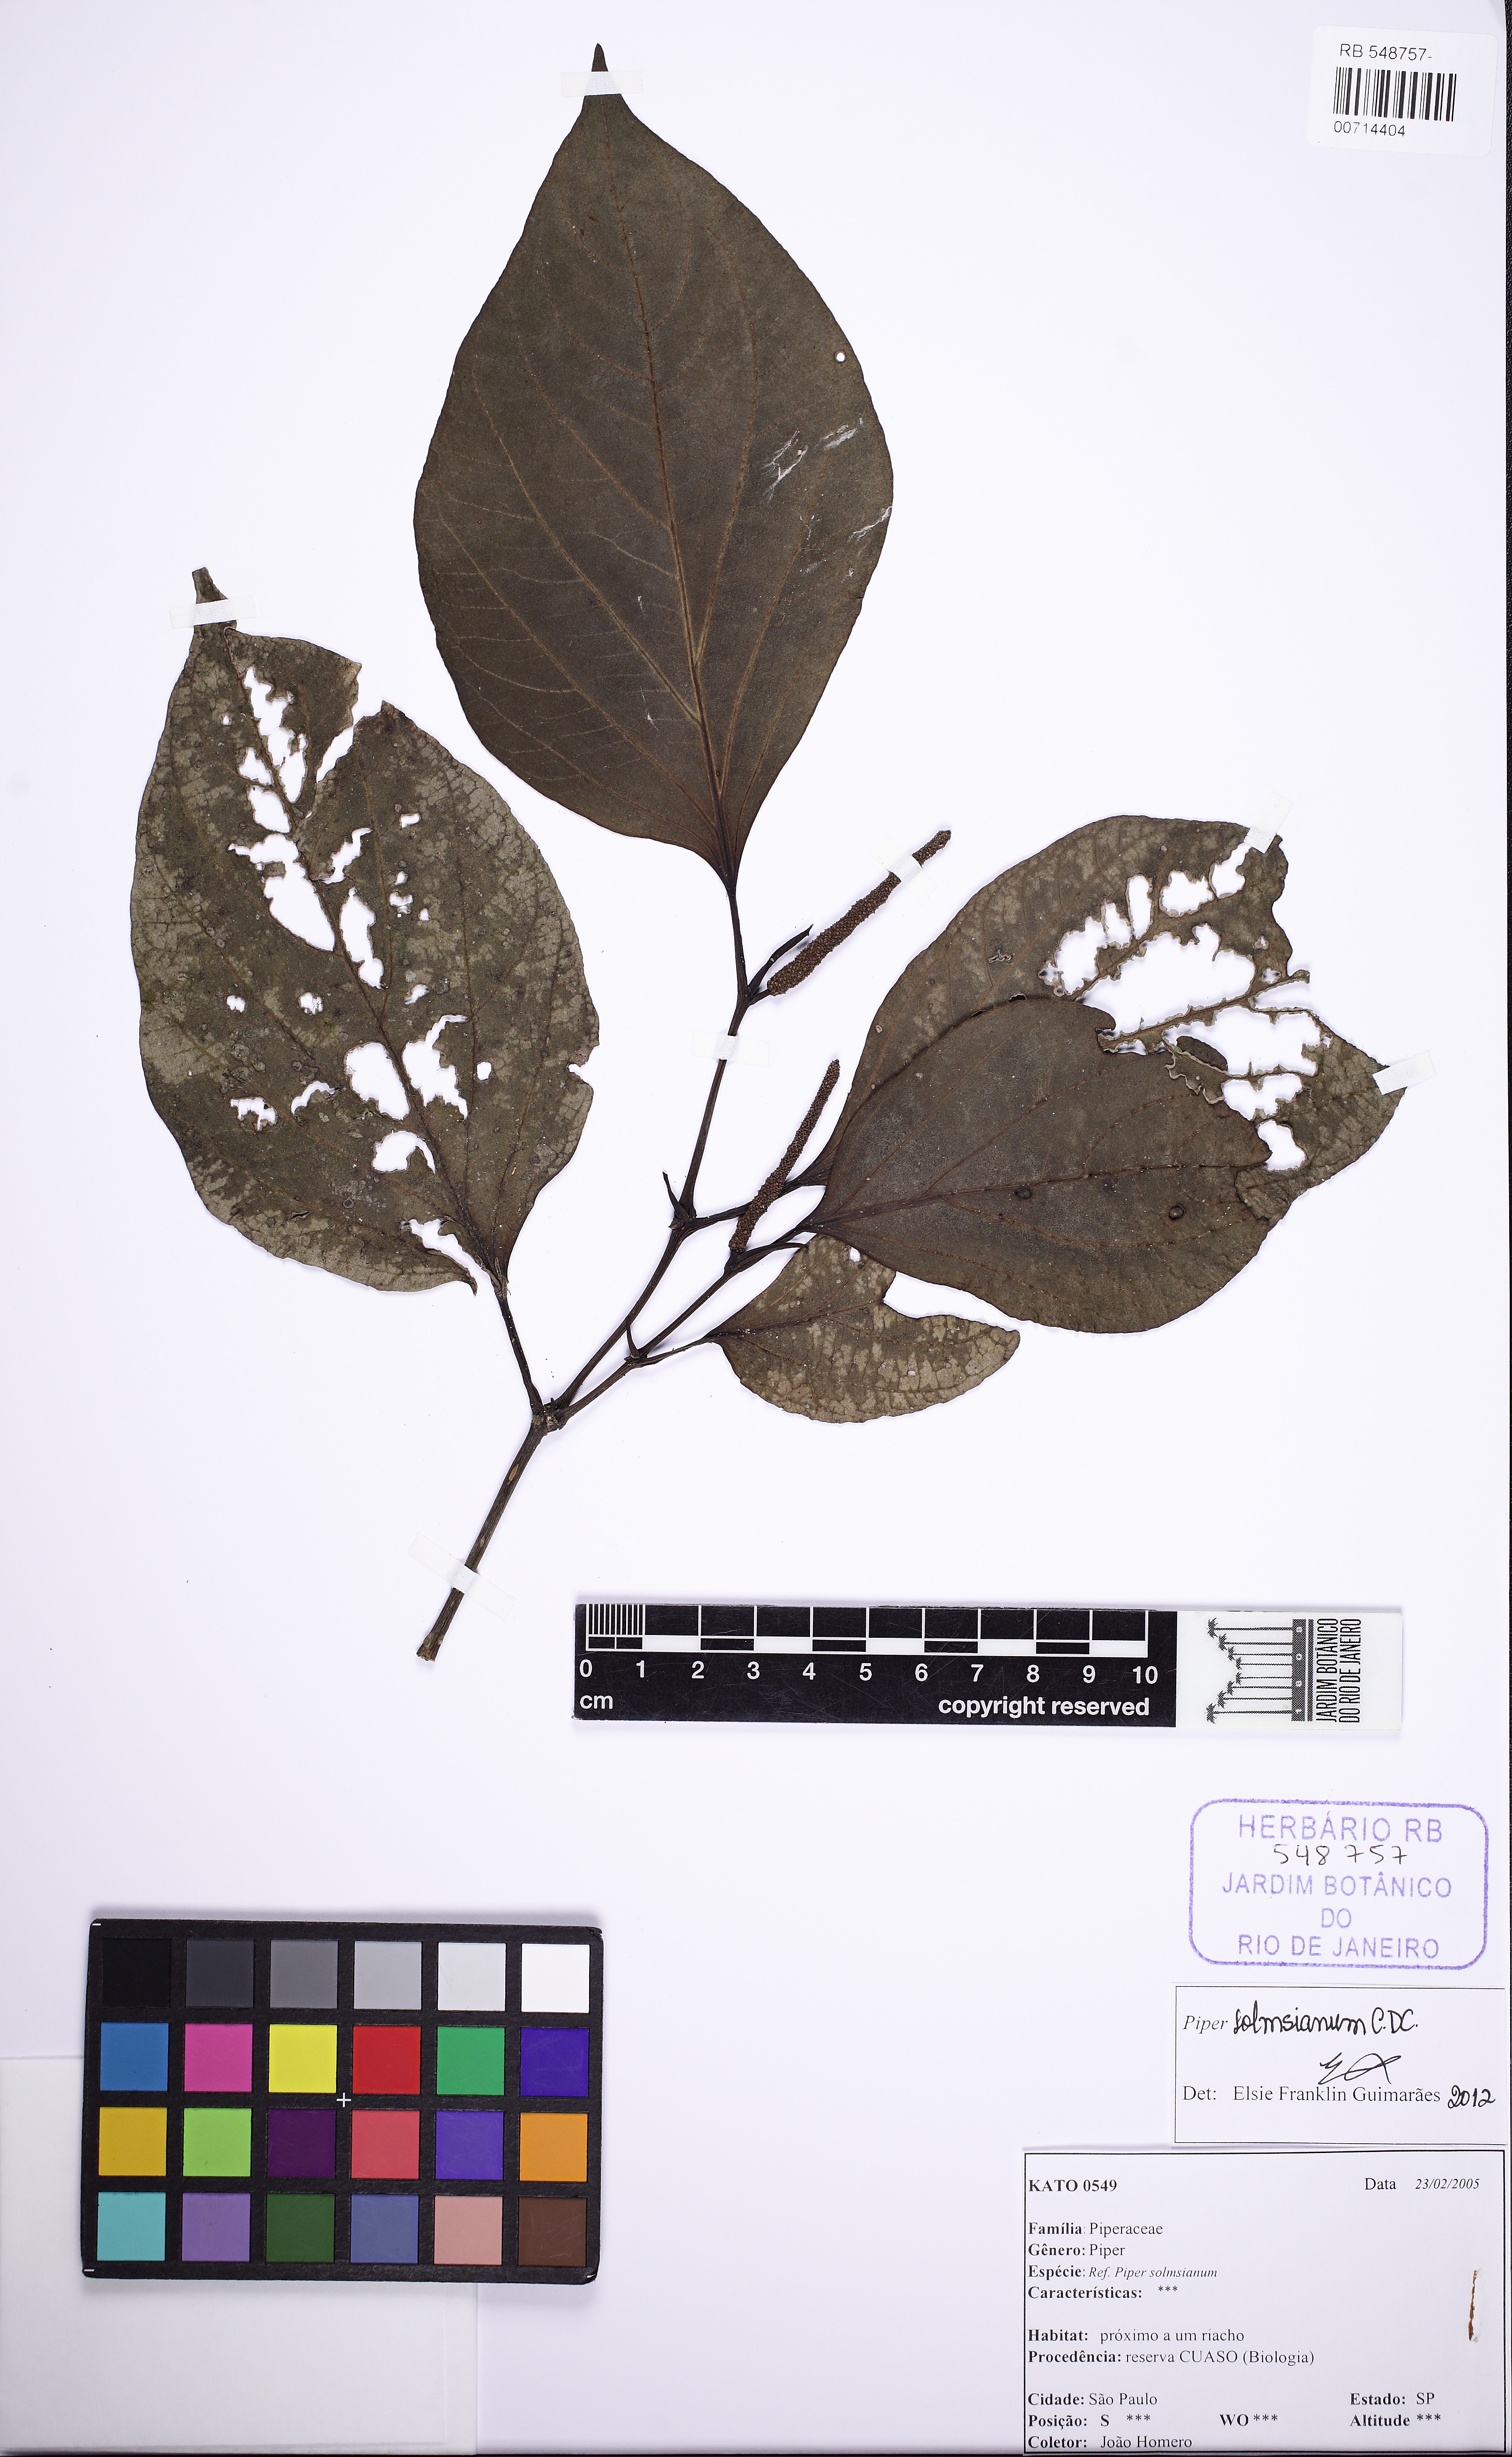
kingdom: Plantae
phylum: Tracheophyta
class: Magnoliopsida
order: Piperales
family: Piperaceae
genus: Piper
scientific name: Piper rivinoides
